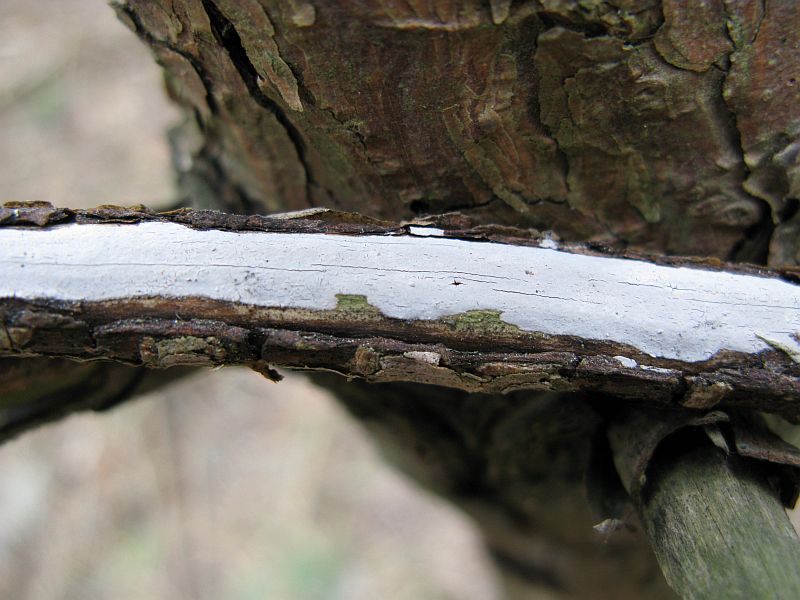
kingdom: Fungi
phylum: Basidiomycota
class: Agaricomycetes
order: Russulales
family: Peniophoraceae
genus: Peniophora
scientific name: Peniophora lycii
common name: grynet voksskind
